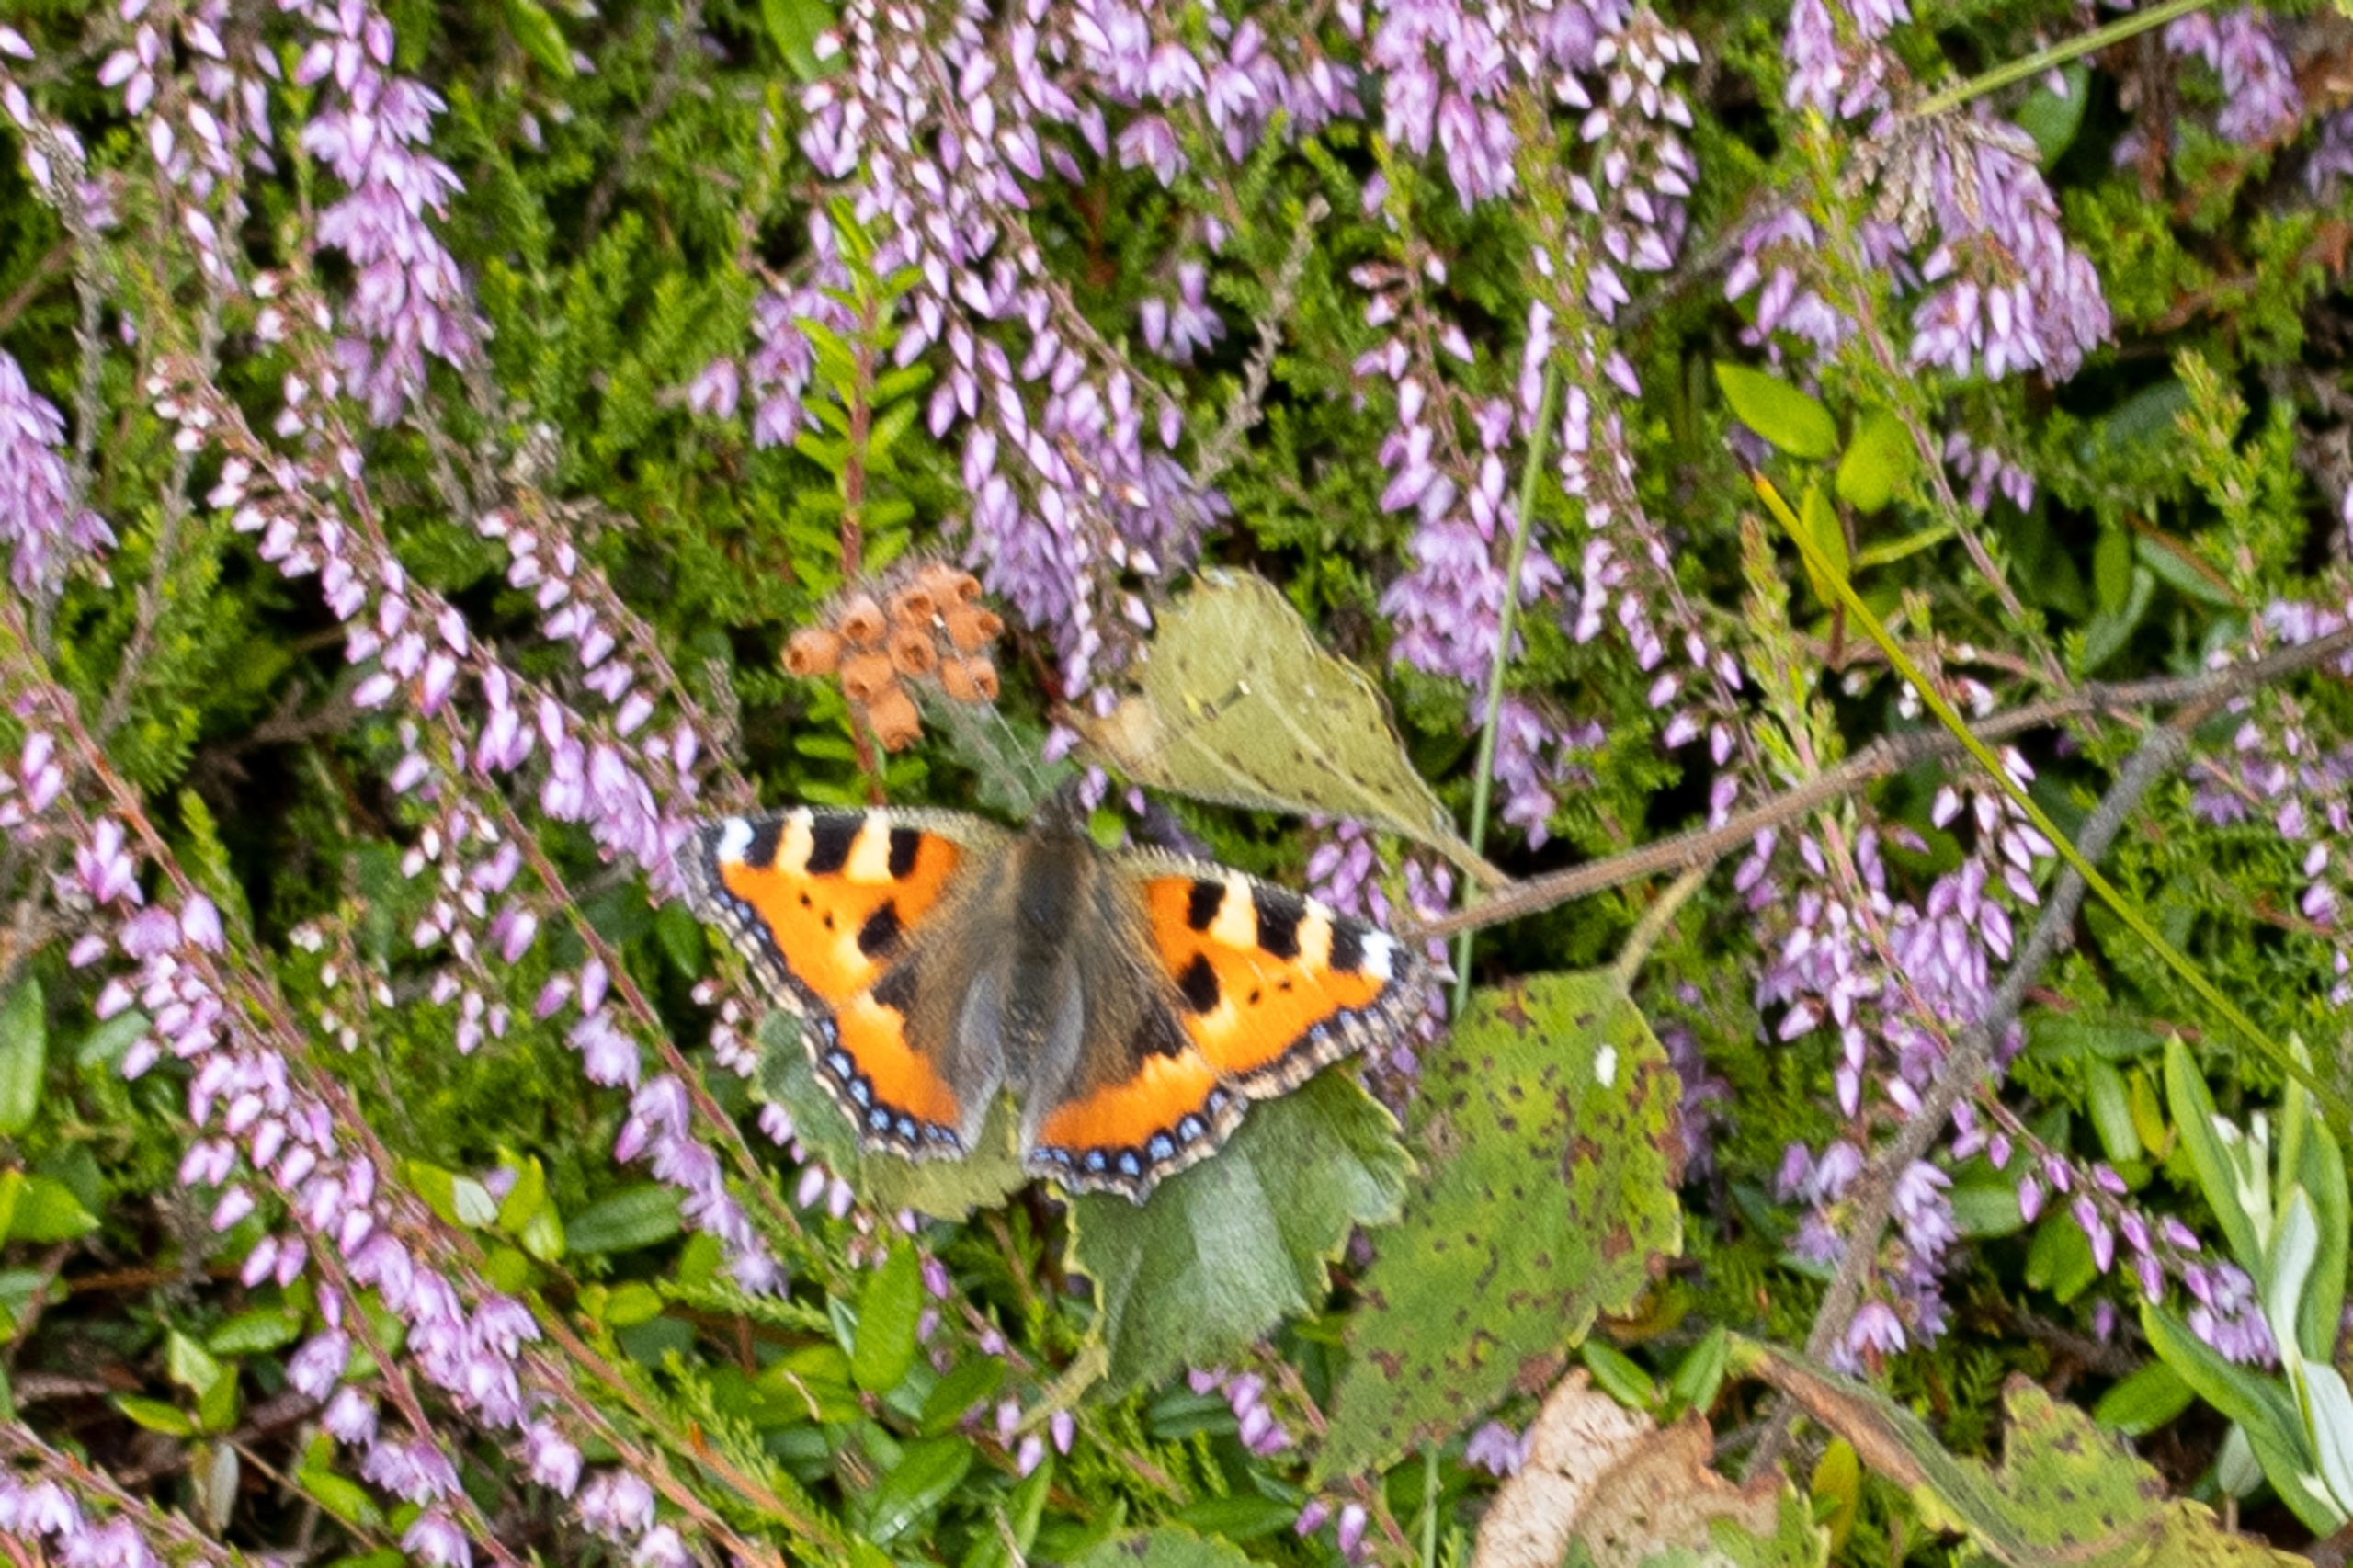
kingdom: Animalia
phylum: Arthropoda
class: Insecta
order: Lepidoptera
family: Nymphalidae
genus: Aglais
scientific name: Aglais urticae
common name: Nældens takvinge
